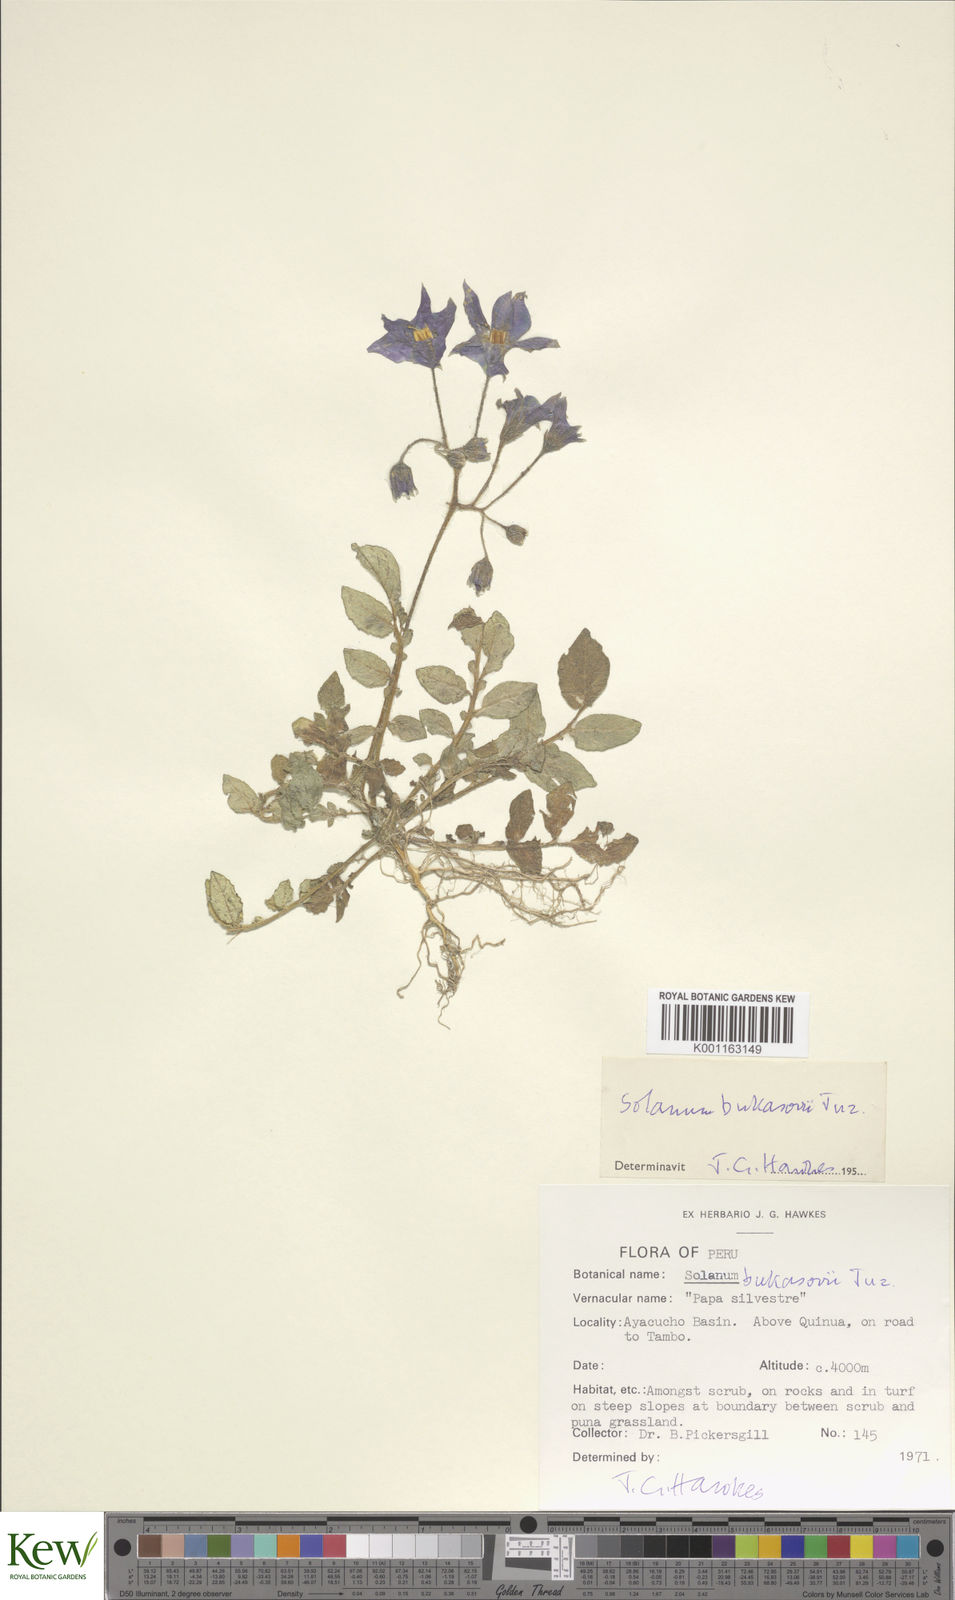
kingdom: Plantae
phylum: Tracheophyta
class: Magnoliopsida
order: Solanales
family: Solanaceae
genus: Solanum
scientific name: Solanum candolleanum
